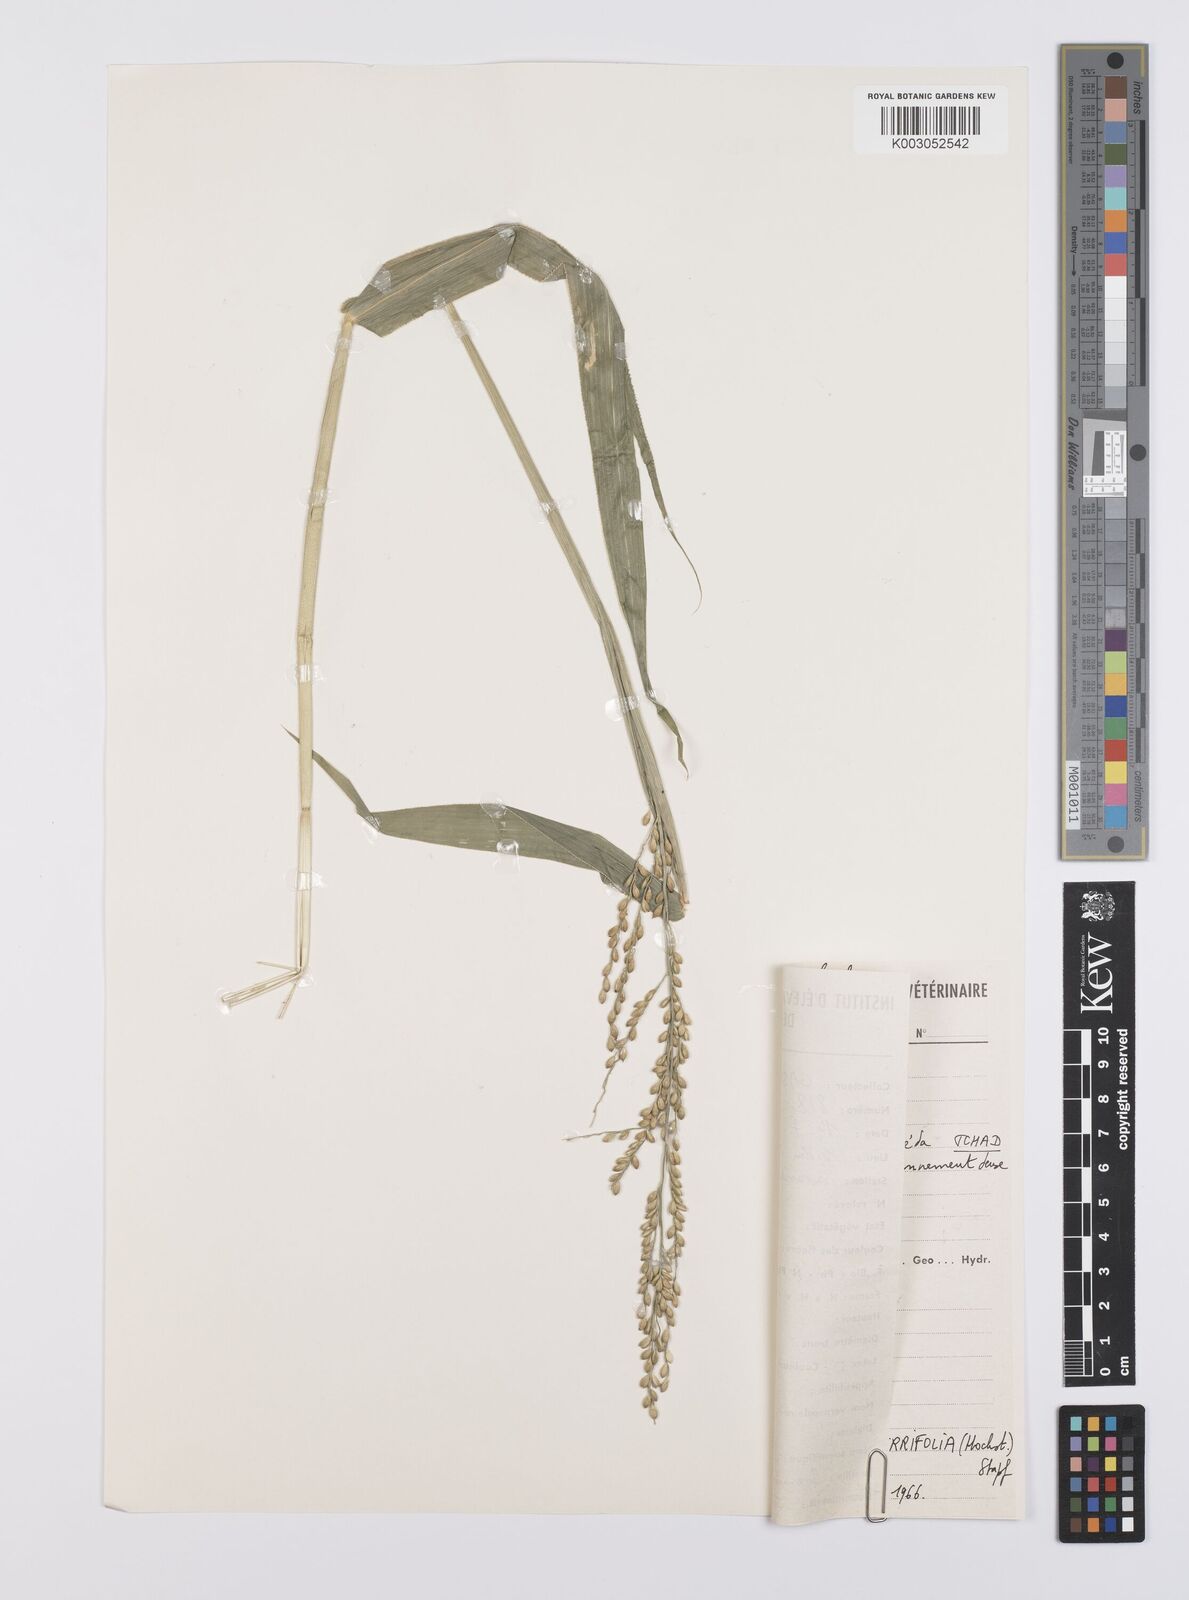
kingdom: Plantae
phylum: Tracheophyta
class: Liliopsida
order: Poales
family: Poaceae
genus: Urochloa
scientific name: Urochloa serrifolia
